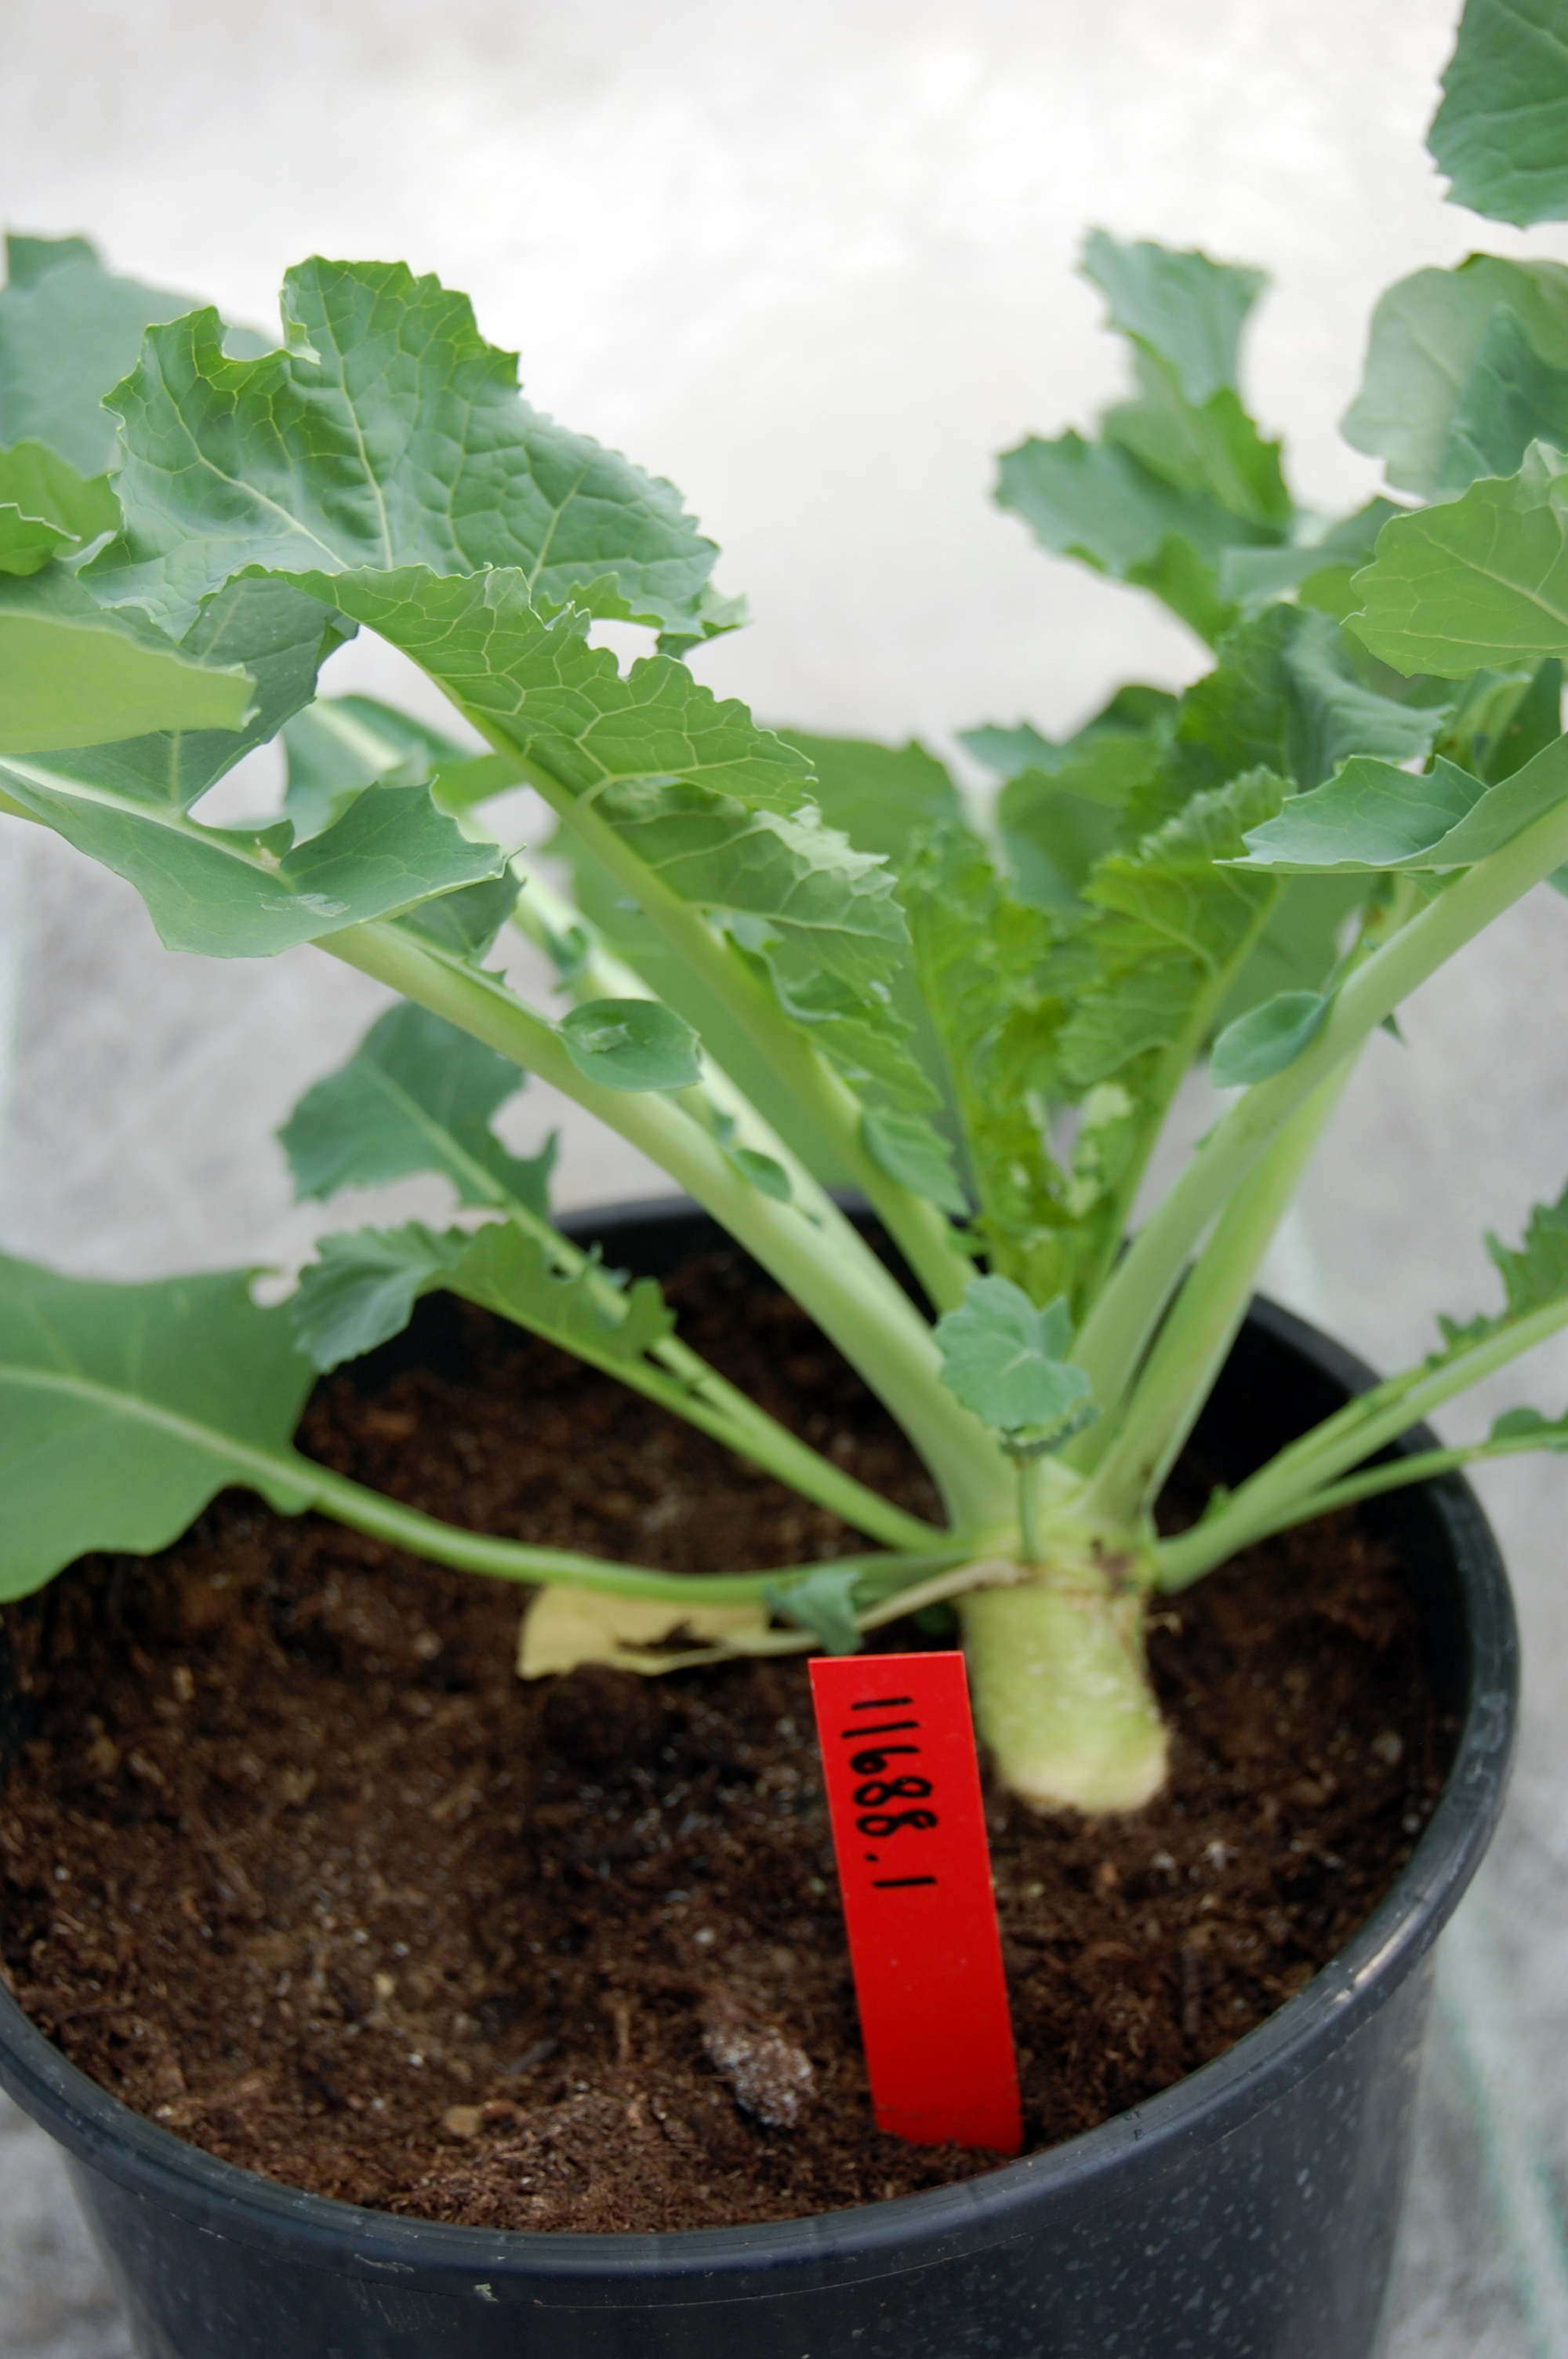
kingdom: Plantae
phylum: Tracheophyta
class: Magnoliopsida
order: Brassicales
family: Brassicaceae
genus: Brassica
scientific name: Brassica napus
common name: Rape
